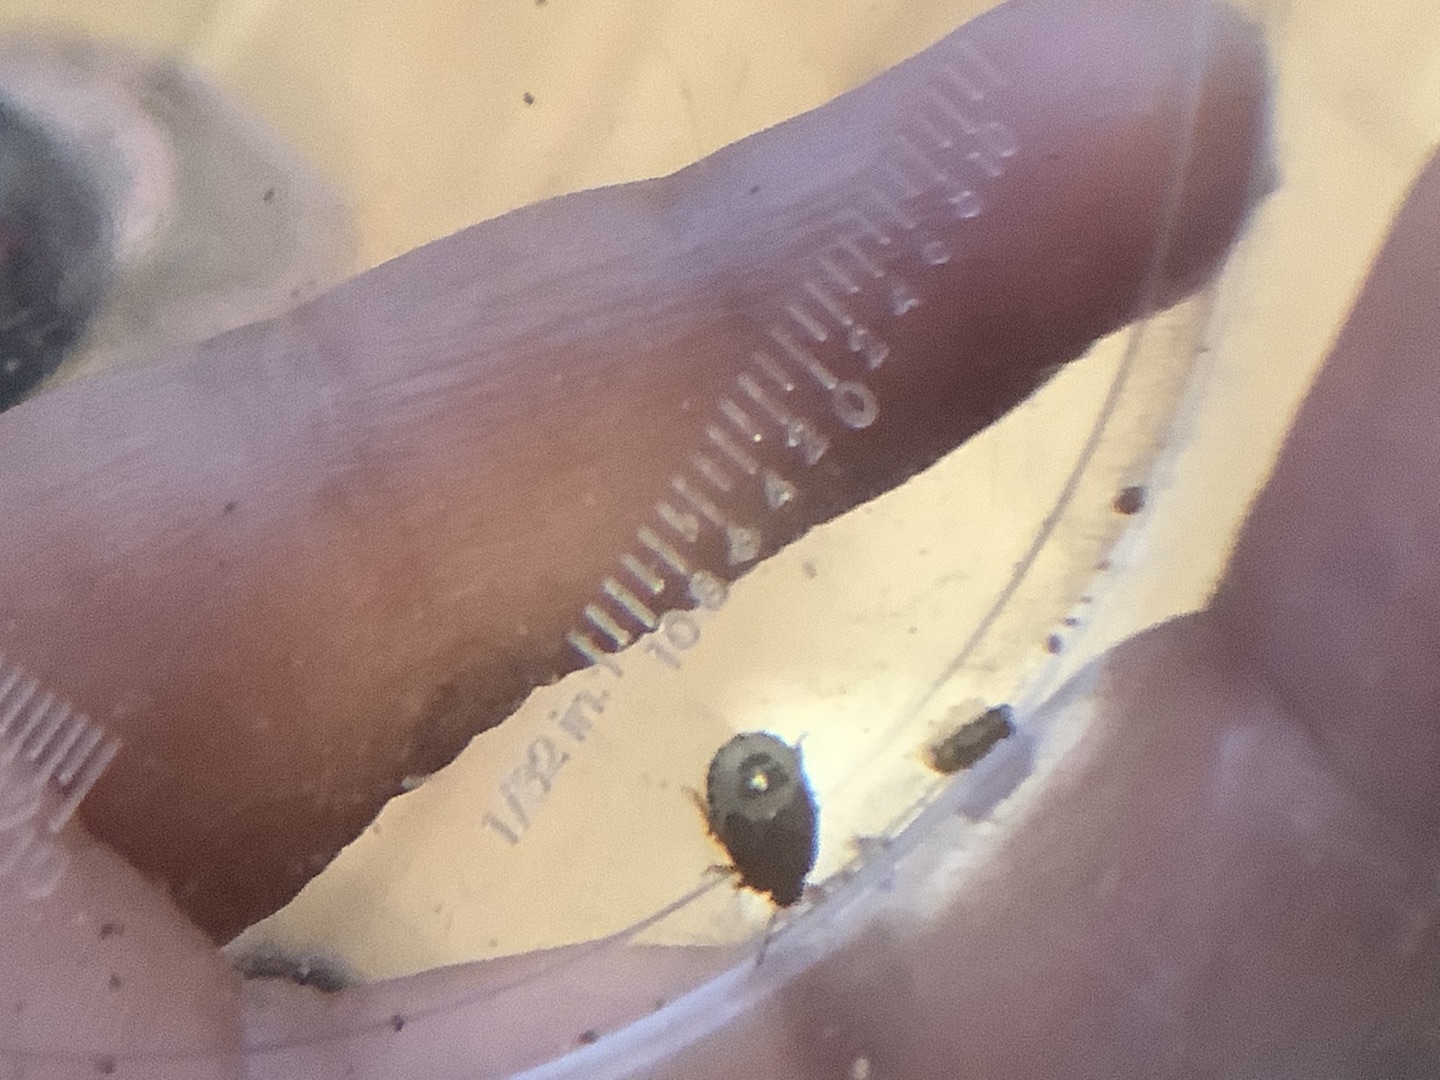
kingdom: Animalia
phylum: Arthropoda
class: Insecta
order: Hemiptera
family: Pentatomidae
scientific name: Pentatomidae
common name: Egentlige bredtæger
